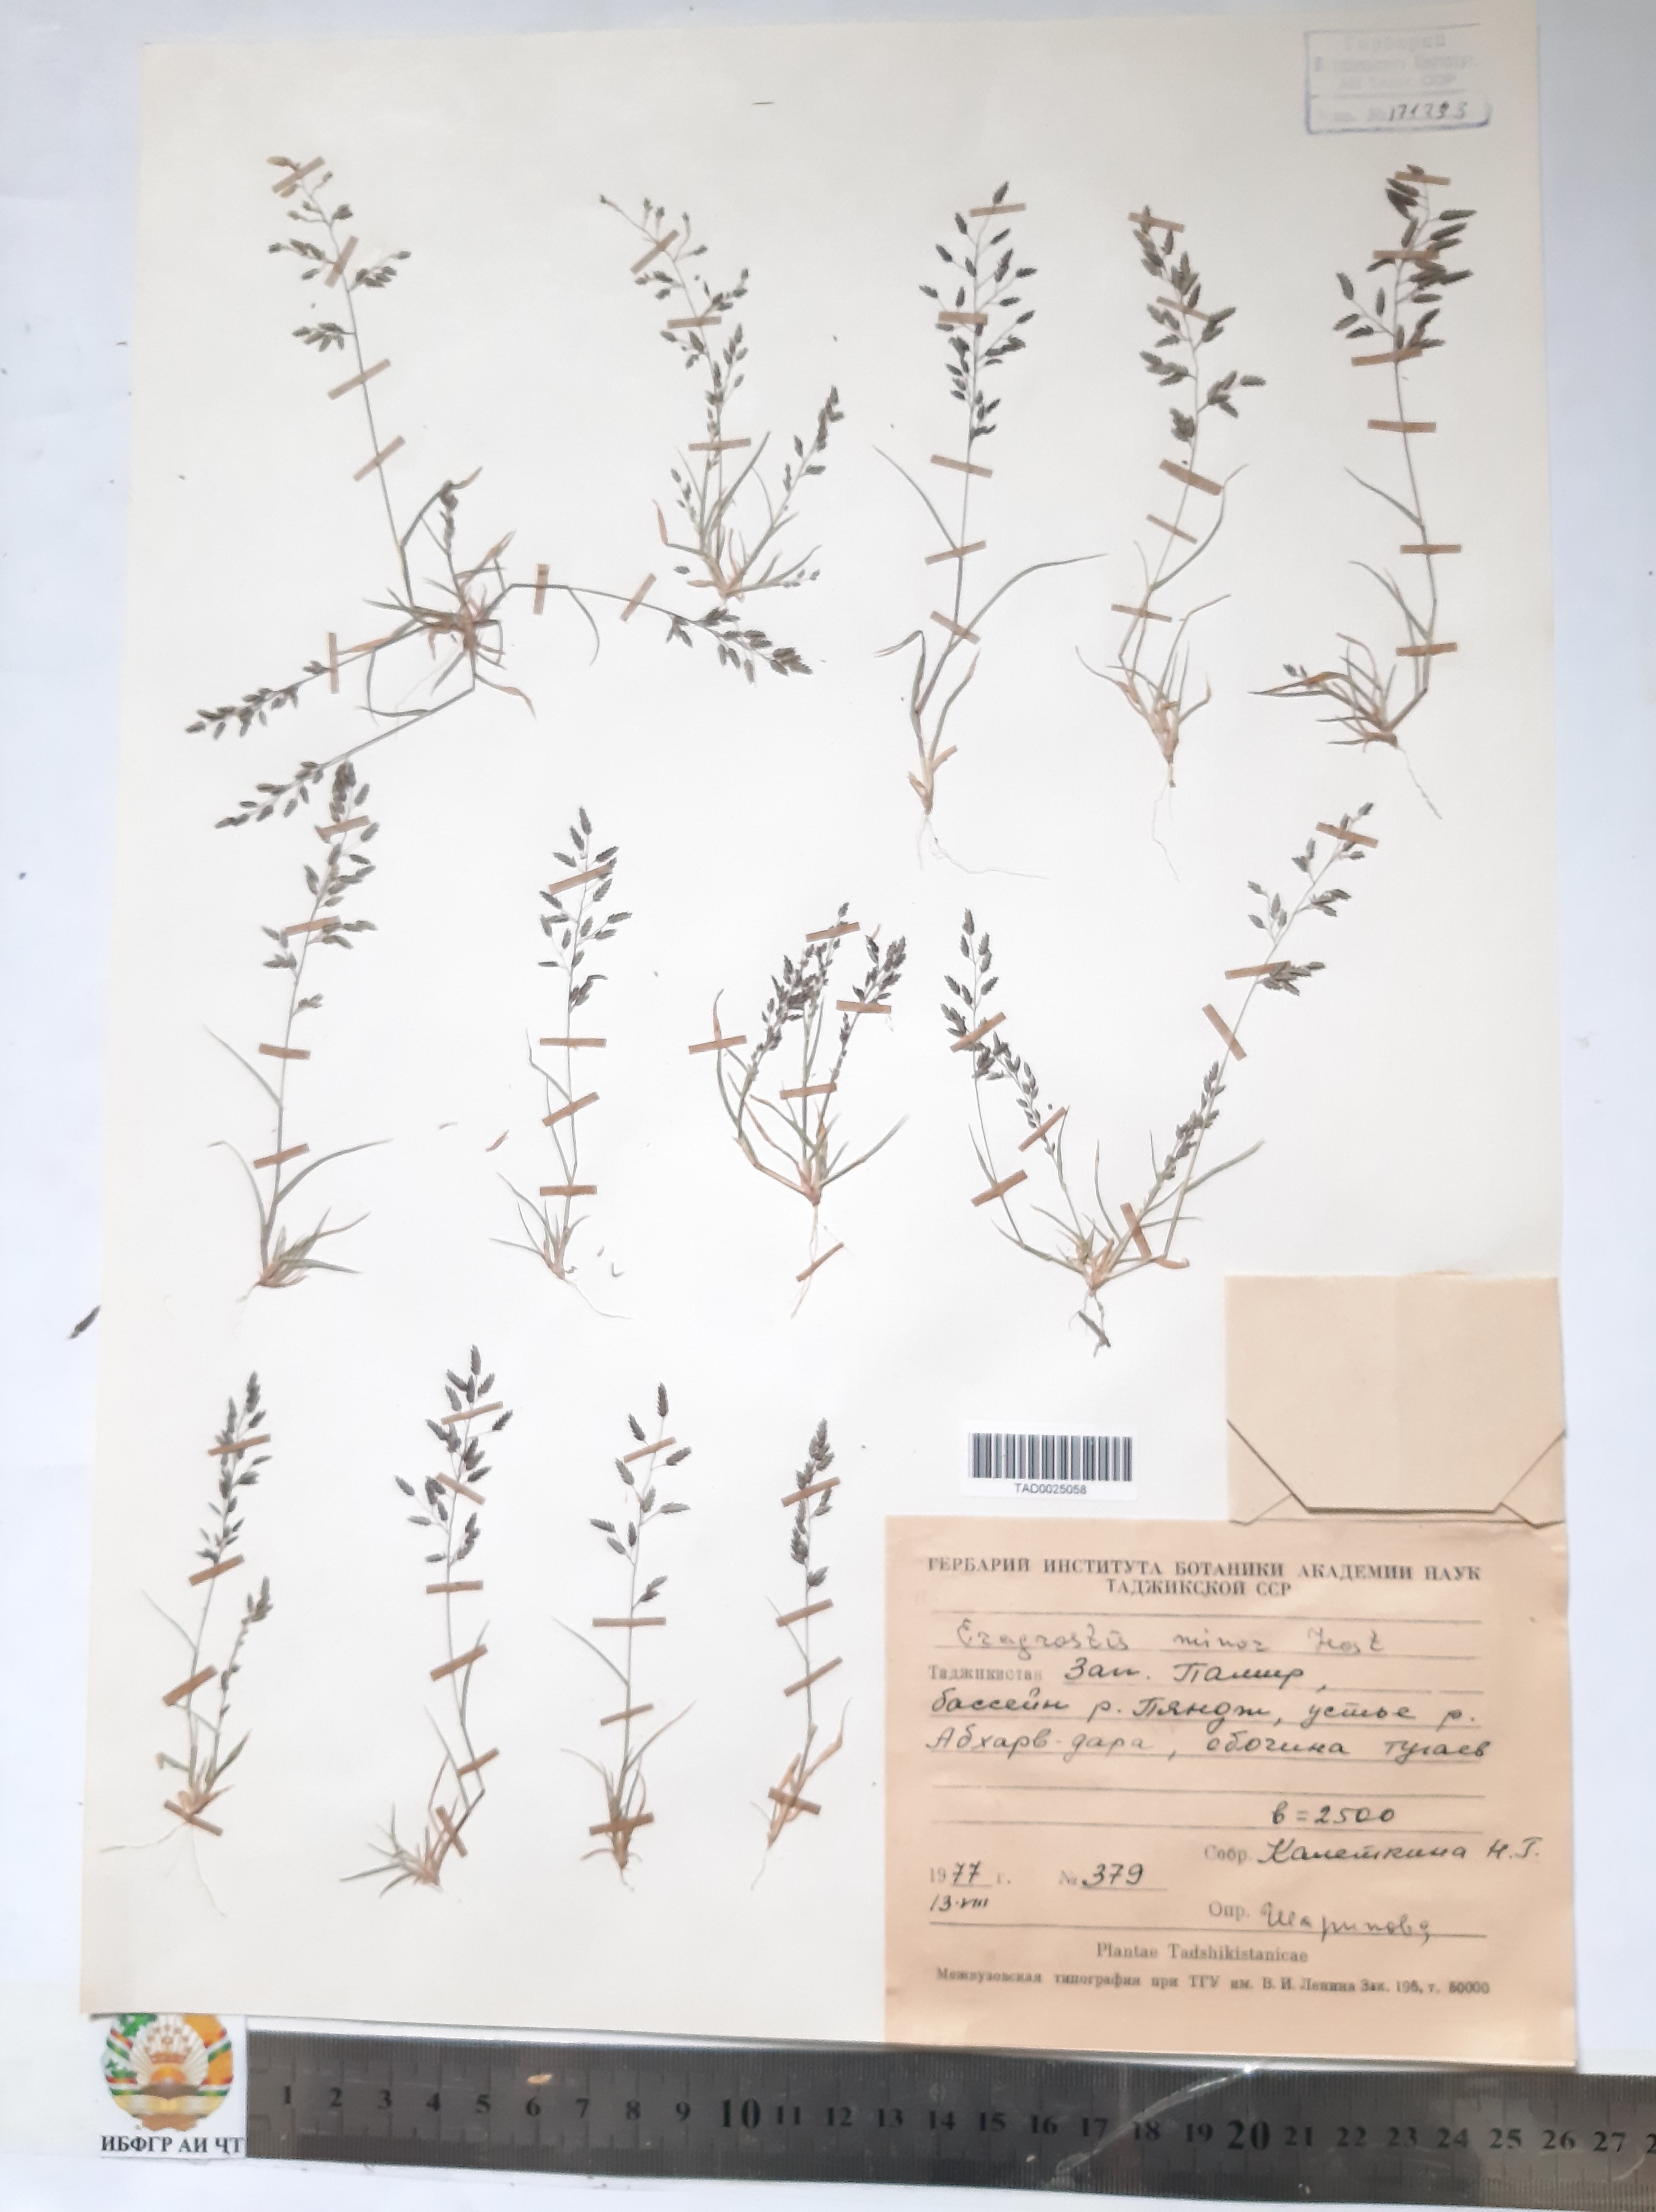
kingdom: Plantae
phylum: Tracheophyta
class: Liliopsida
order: Poales
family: Poaceae
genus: Eragrostis
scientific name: Eragrostis minor
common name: Small love-grass
